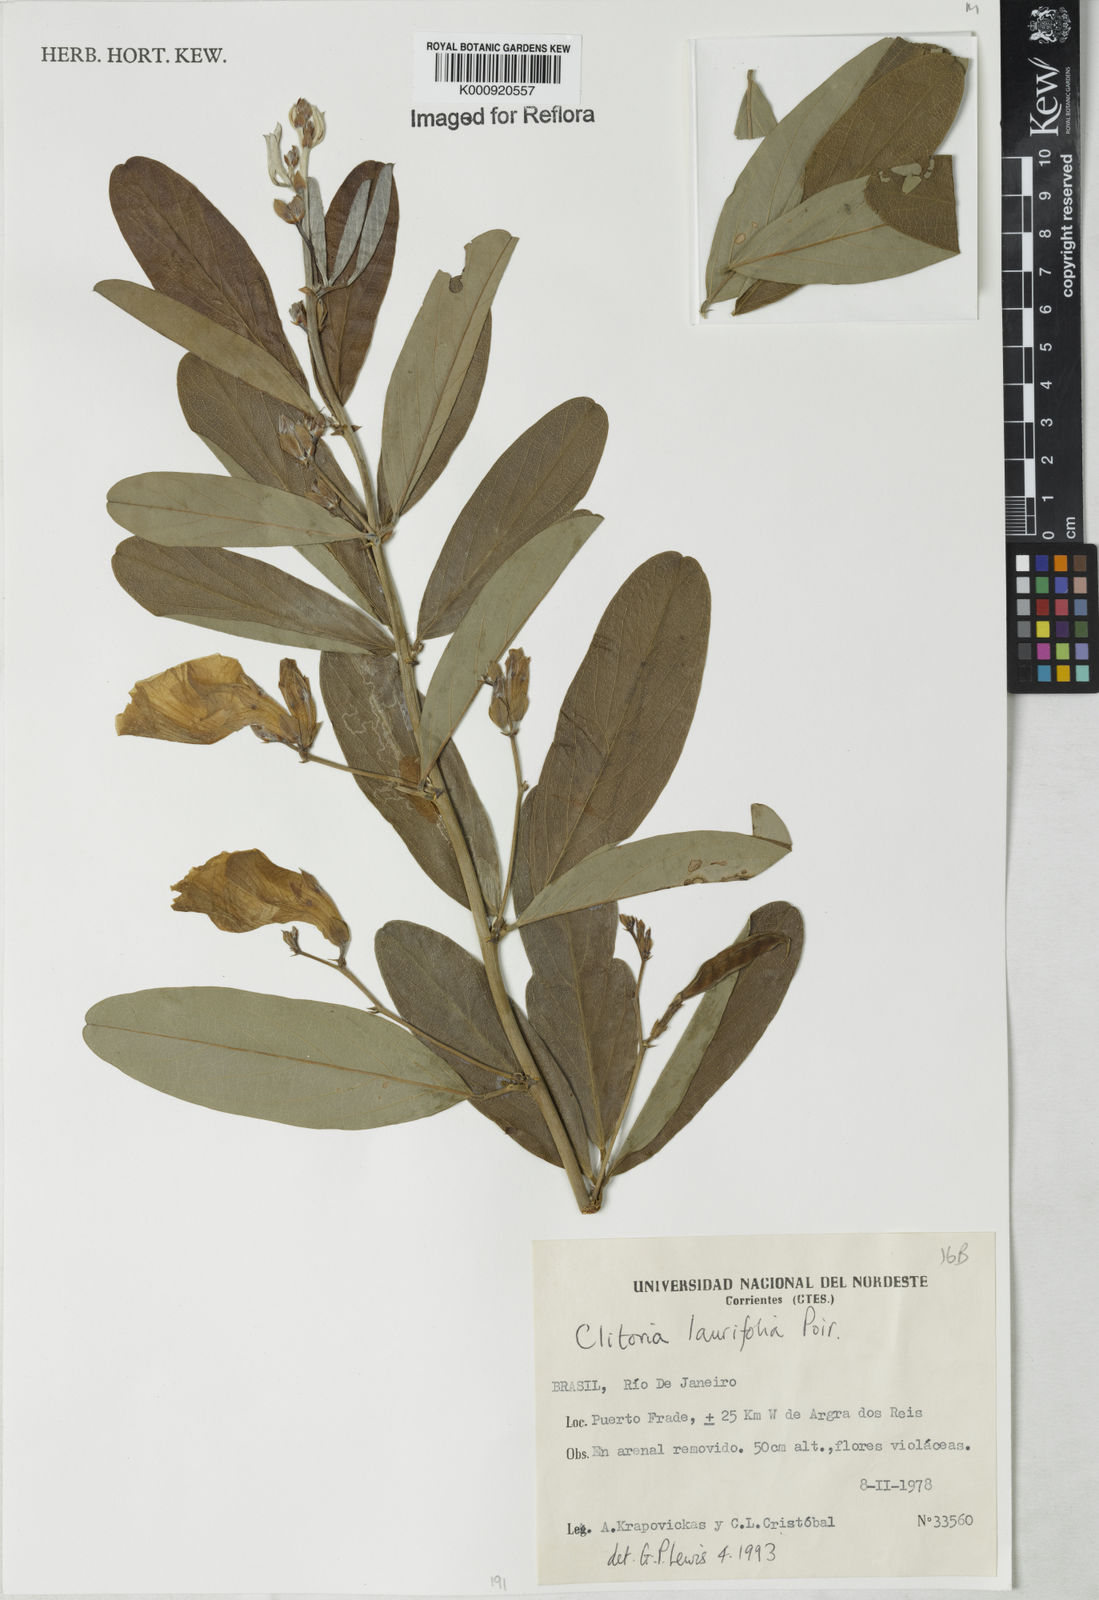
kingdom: Plantae
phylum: Tracheophyta
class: Magnoliopsida
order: Fabales
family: Fabaceae
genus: Clitoria
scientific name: Clitoria
